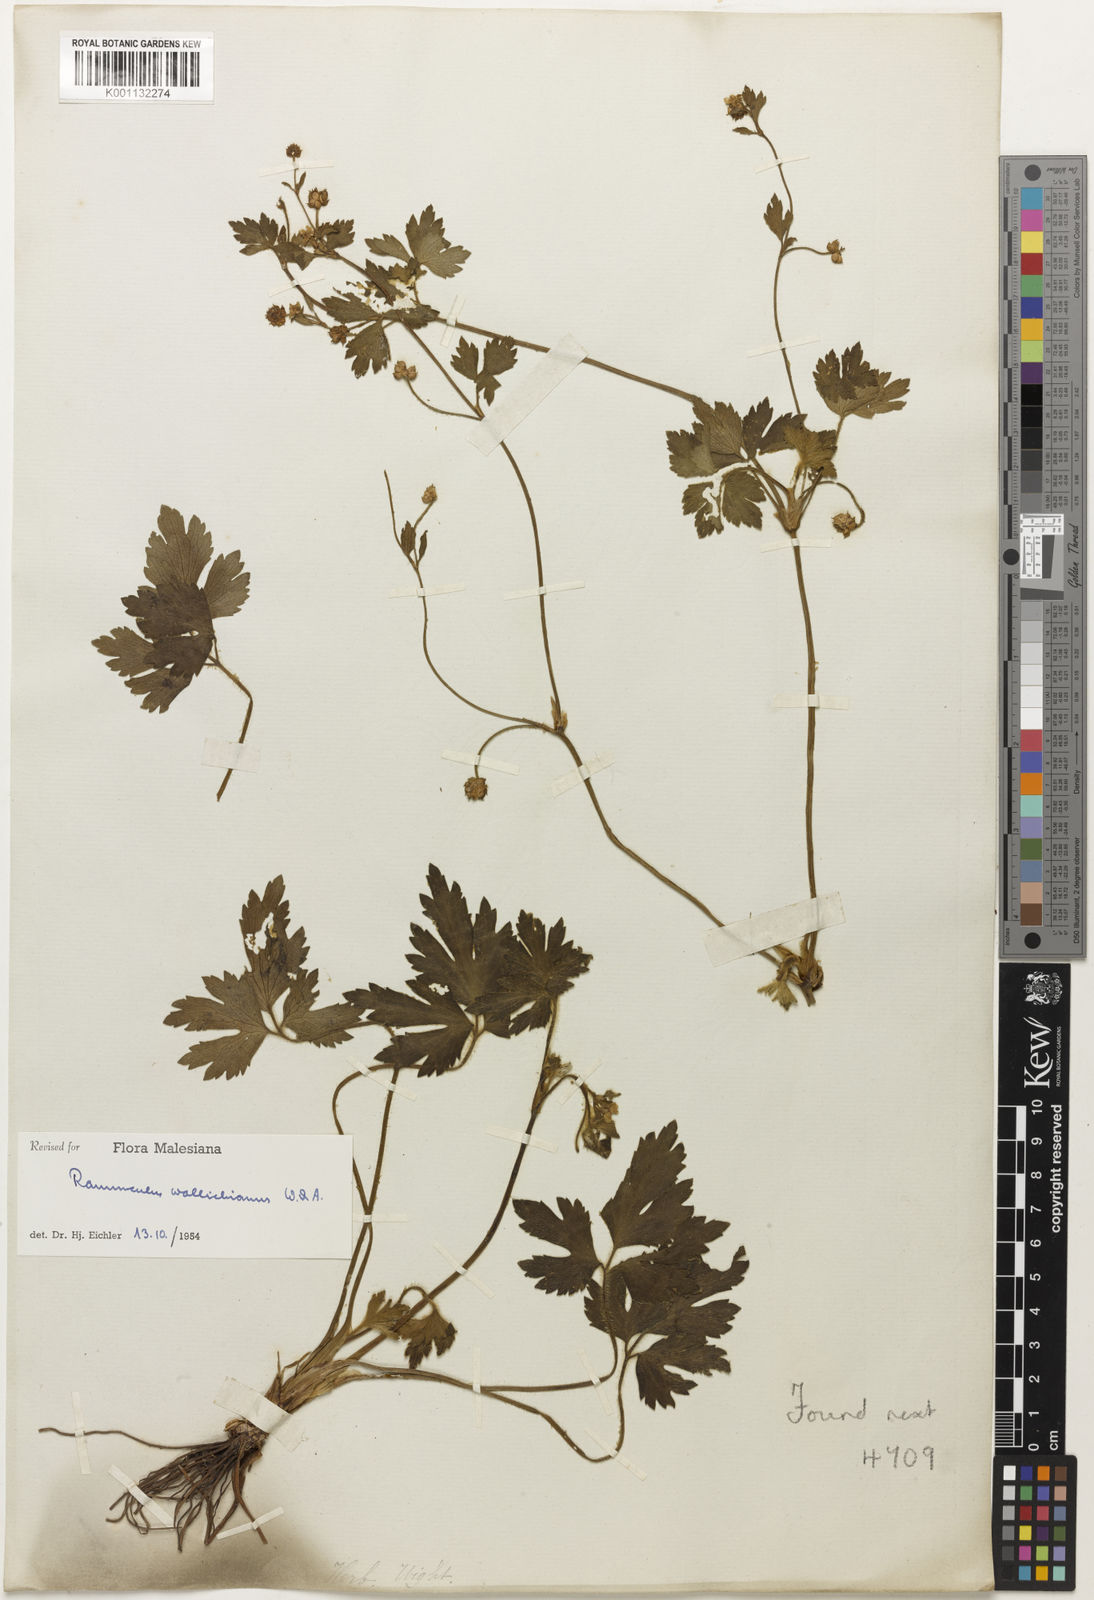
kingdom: Plantae
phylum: Tracheophyta
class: Magnoliopsida
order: Ranunculales
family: Ranunculaceae
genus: Ranunculus
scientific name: Ranunculus
